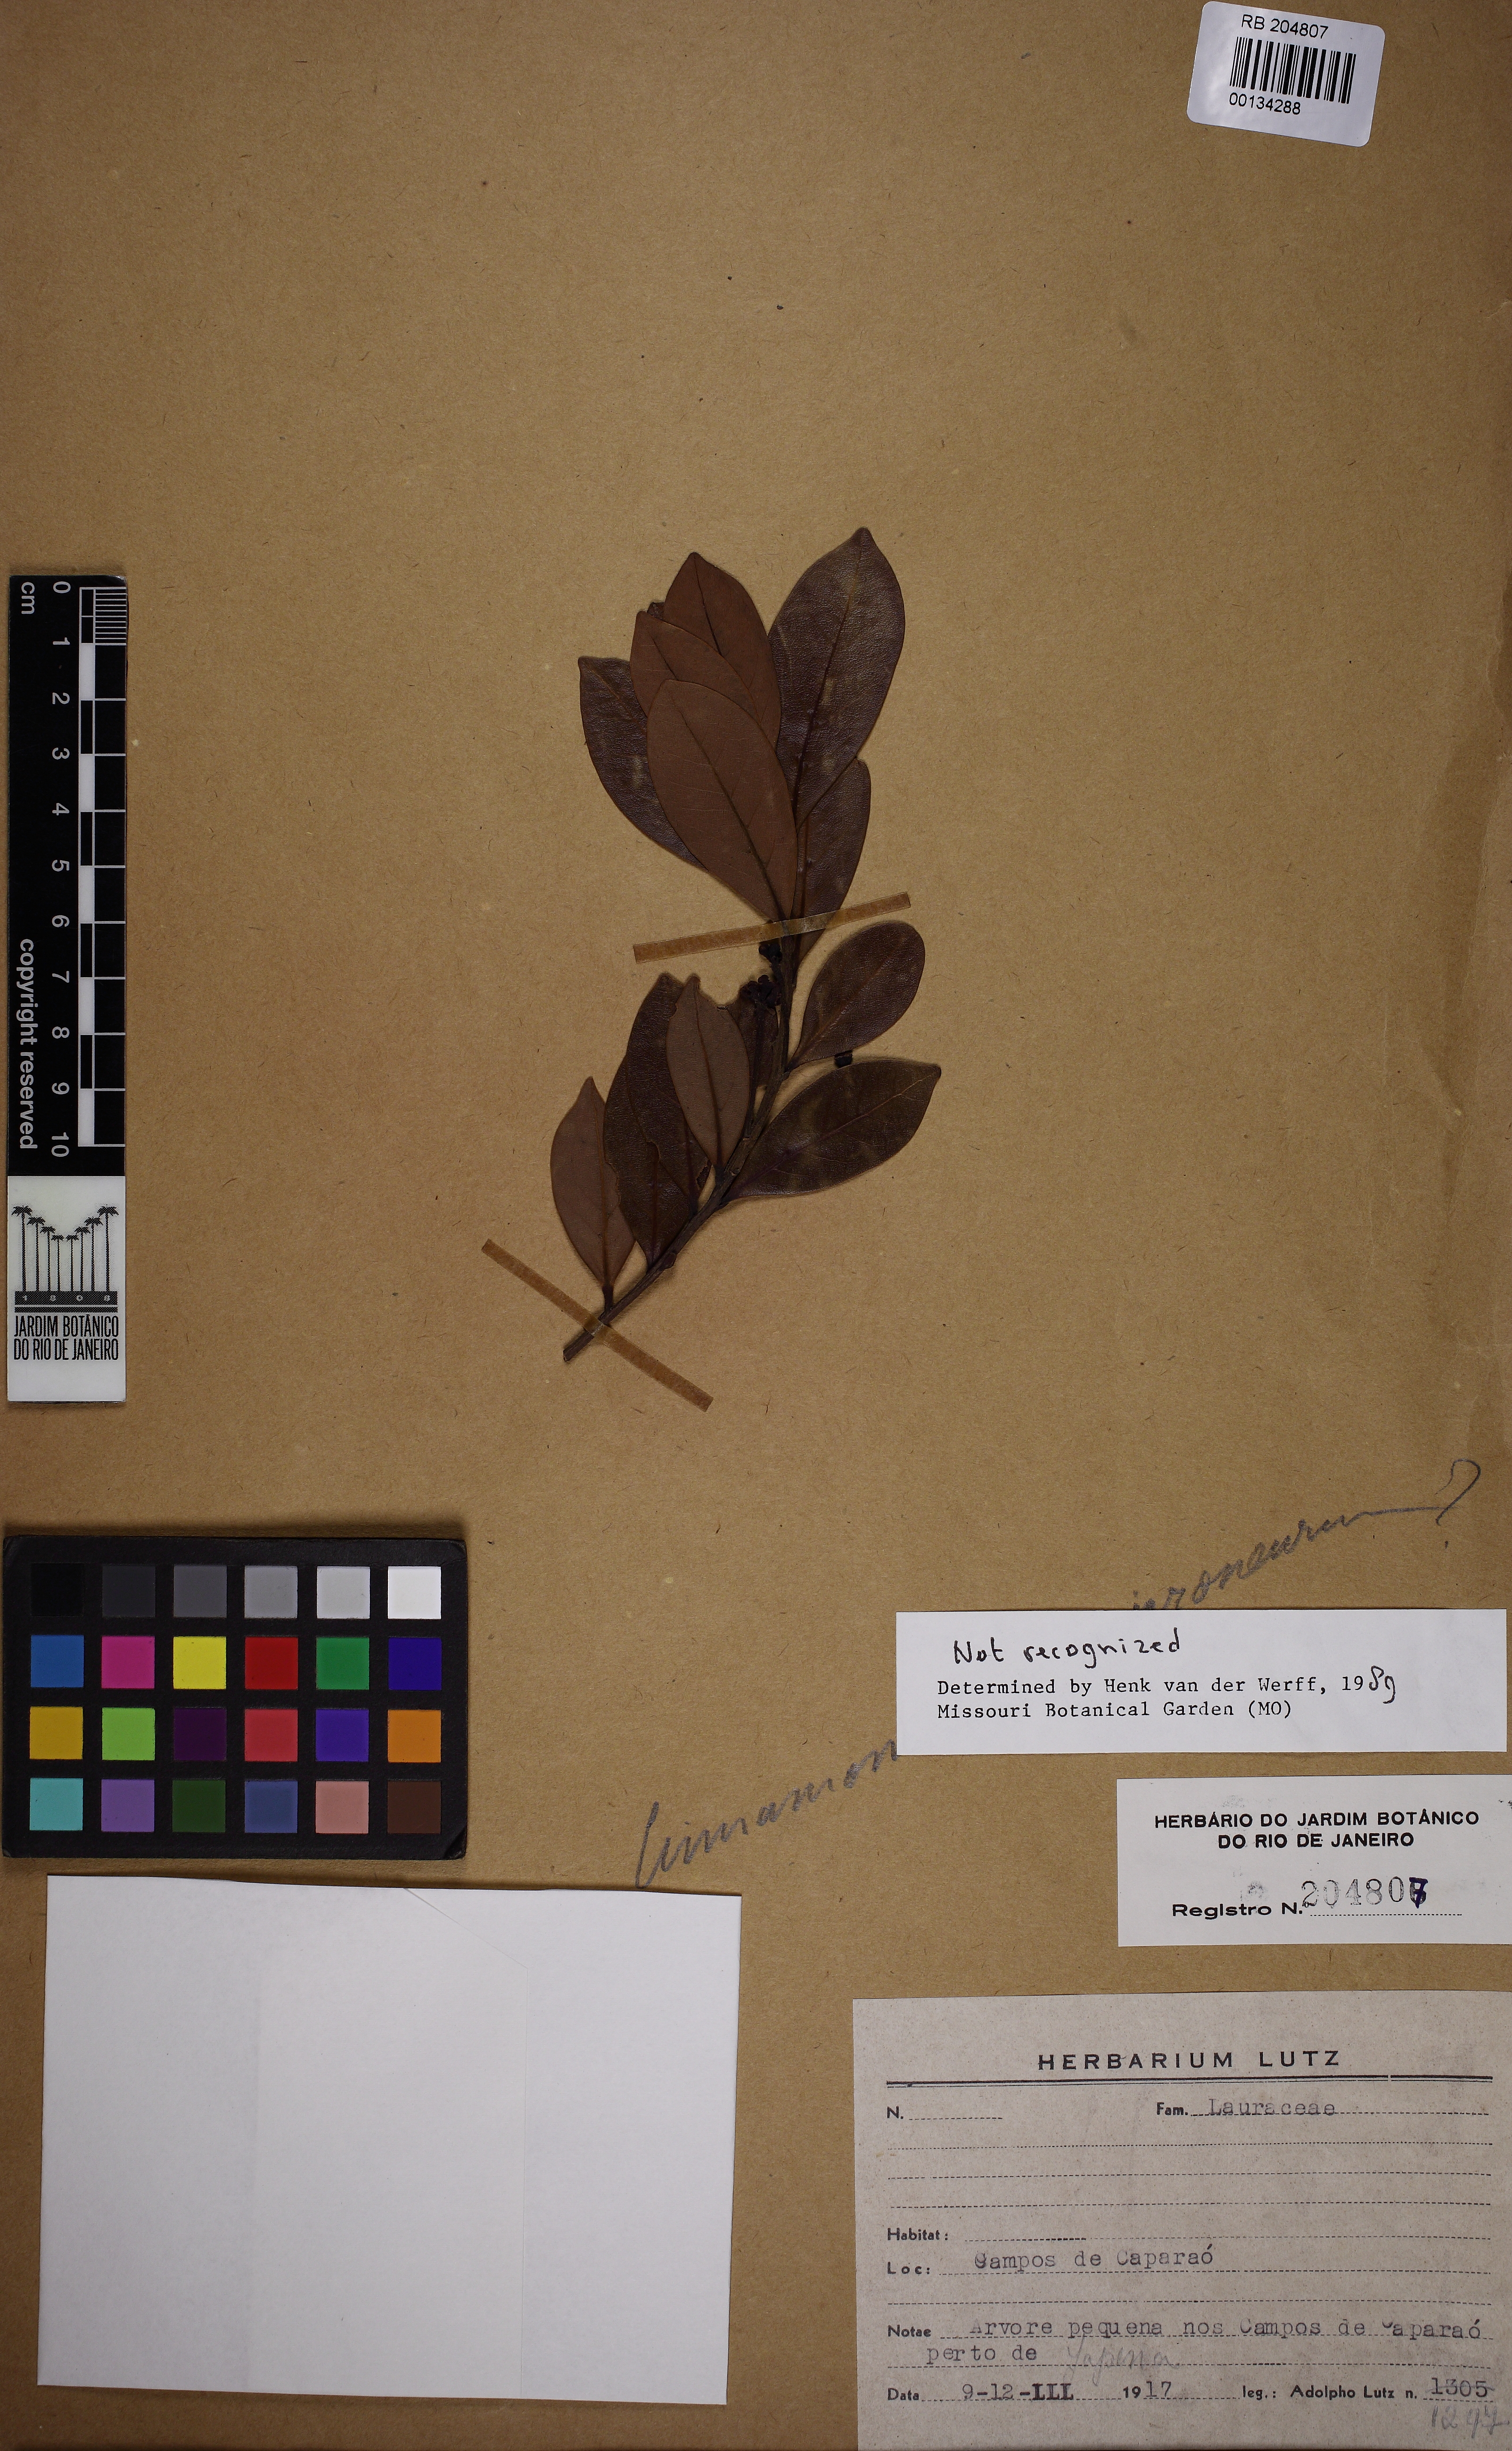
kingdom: Plantae
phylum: Tracheophyta
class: Magnoliopsida
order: Laurales
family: Lauraceae
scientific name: Lauraceae
